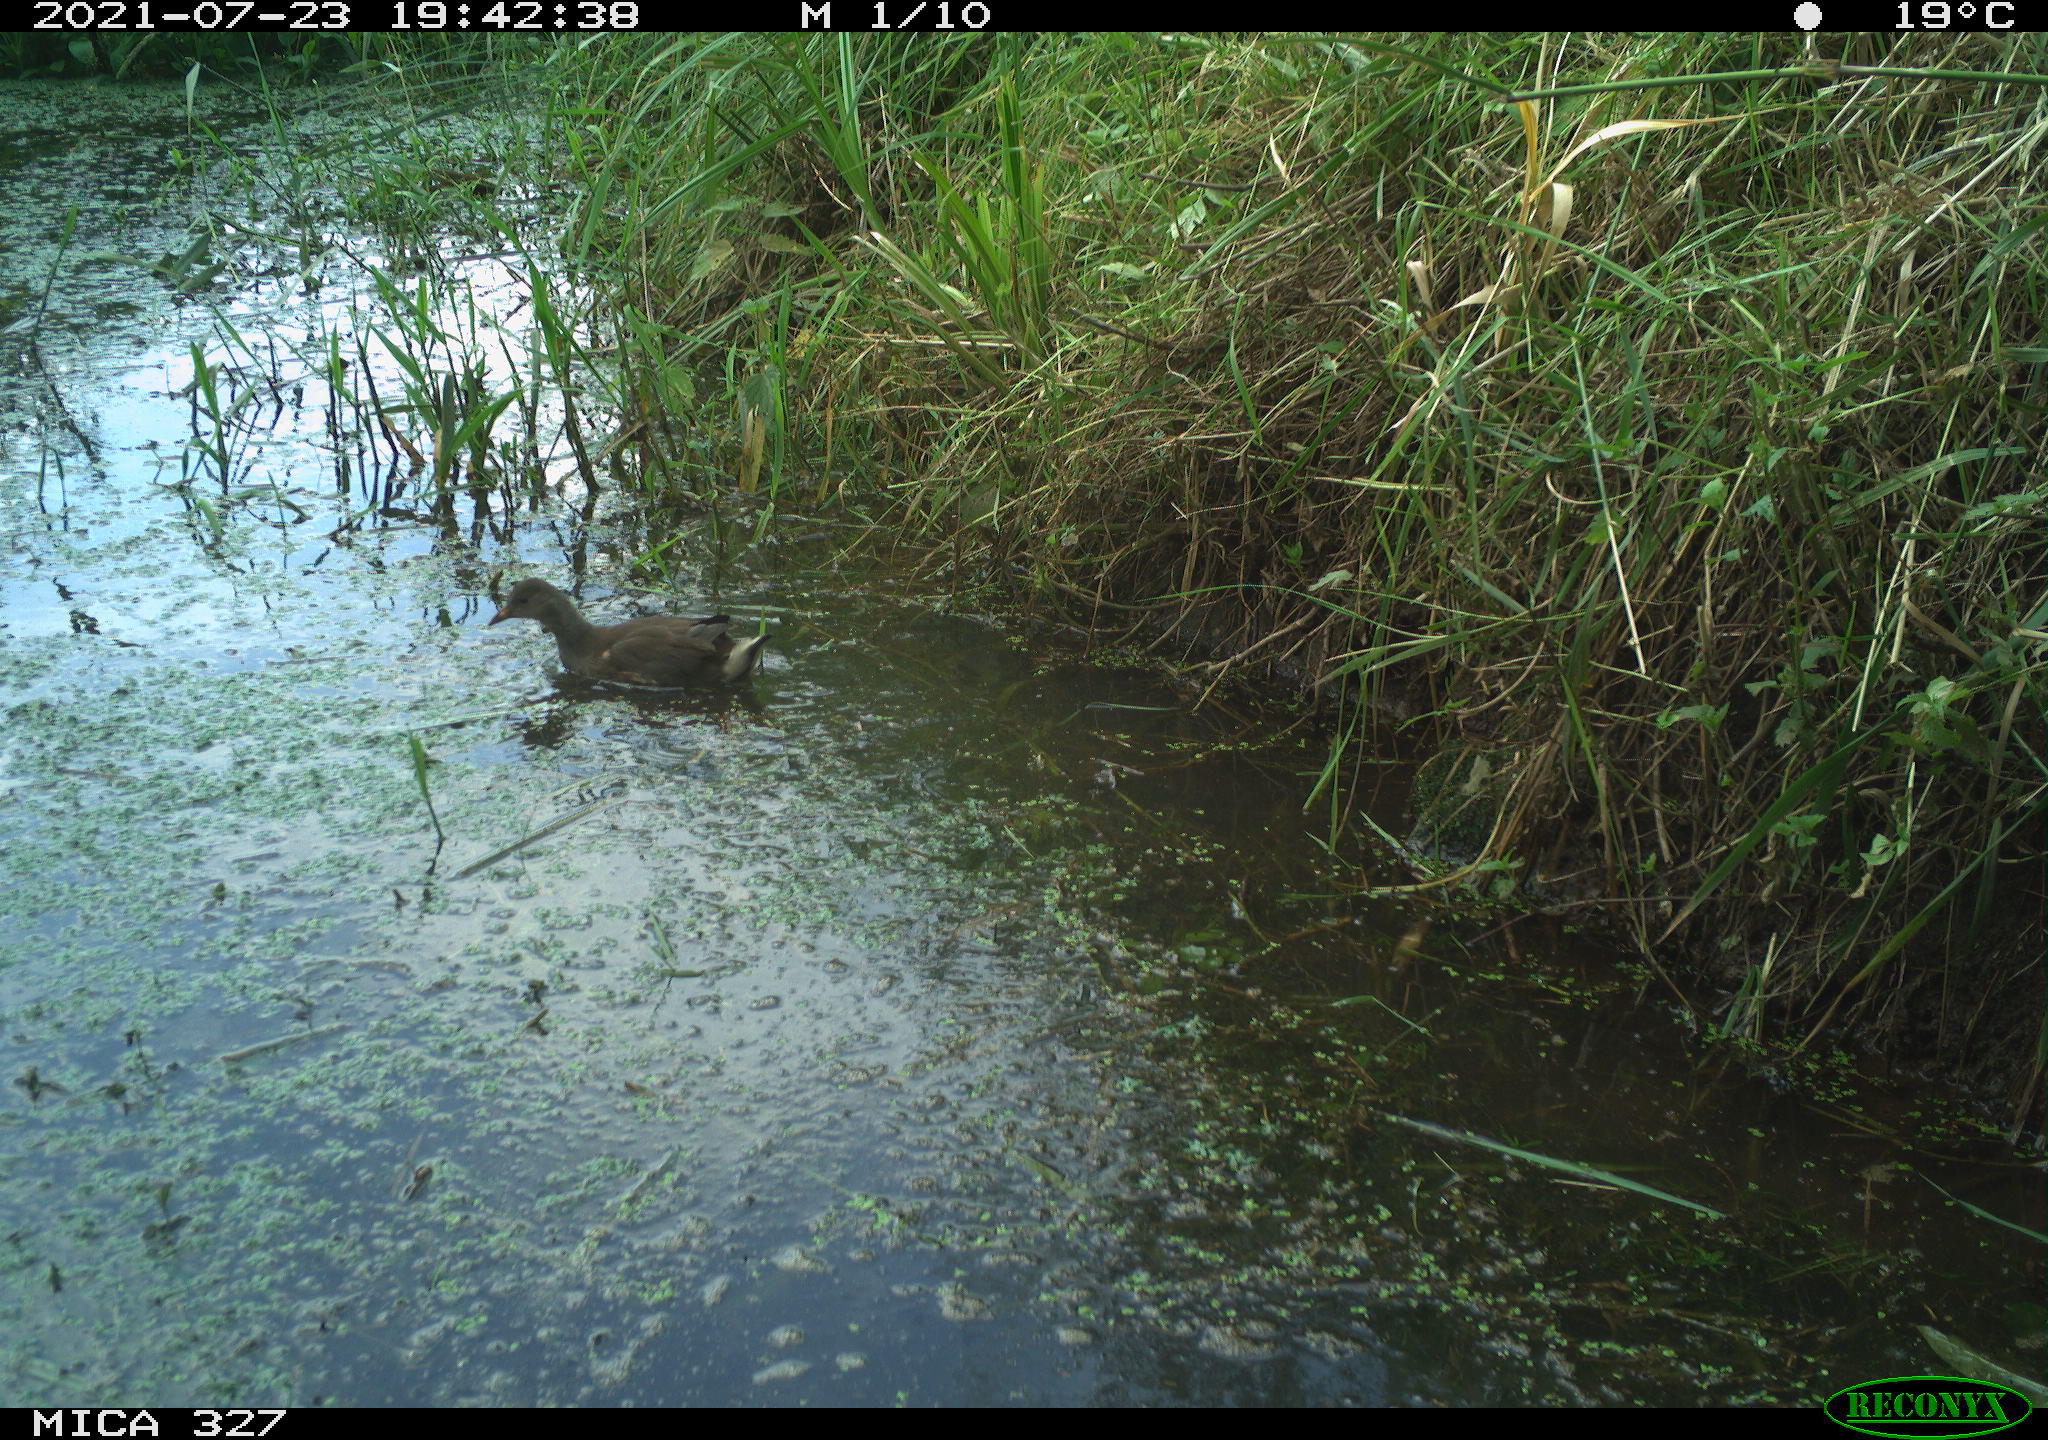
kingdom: Animalia
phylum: Chordata
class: Aves
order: Gruiformes
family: Rallidae
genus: Gallinula
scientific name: Gallinula chloropus
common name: Common moorhen
